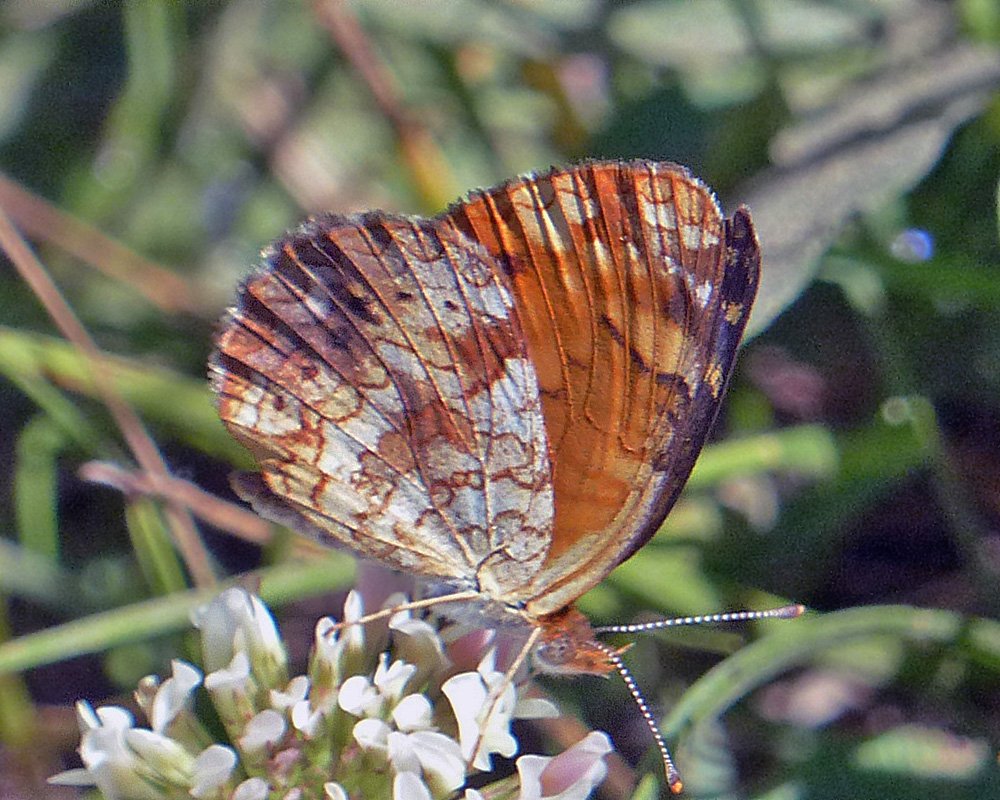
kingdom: Animalia
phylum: Arthropoda
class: Insecta
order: Lepidoptera
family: Nymphalidae
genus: Phyciodes
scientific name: Phyciodes tharos
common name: Northern Crescent
